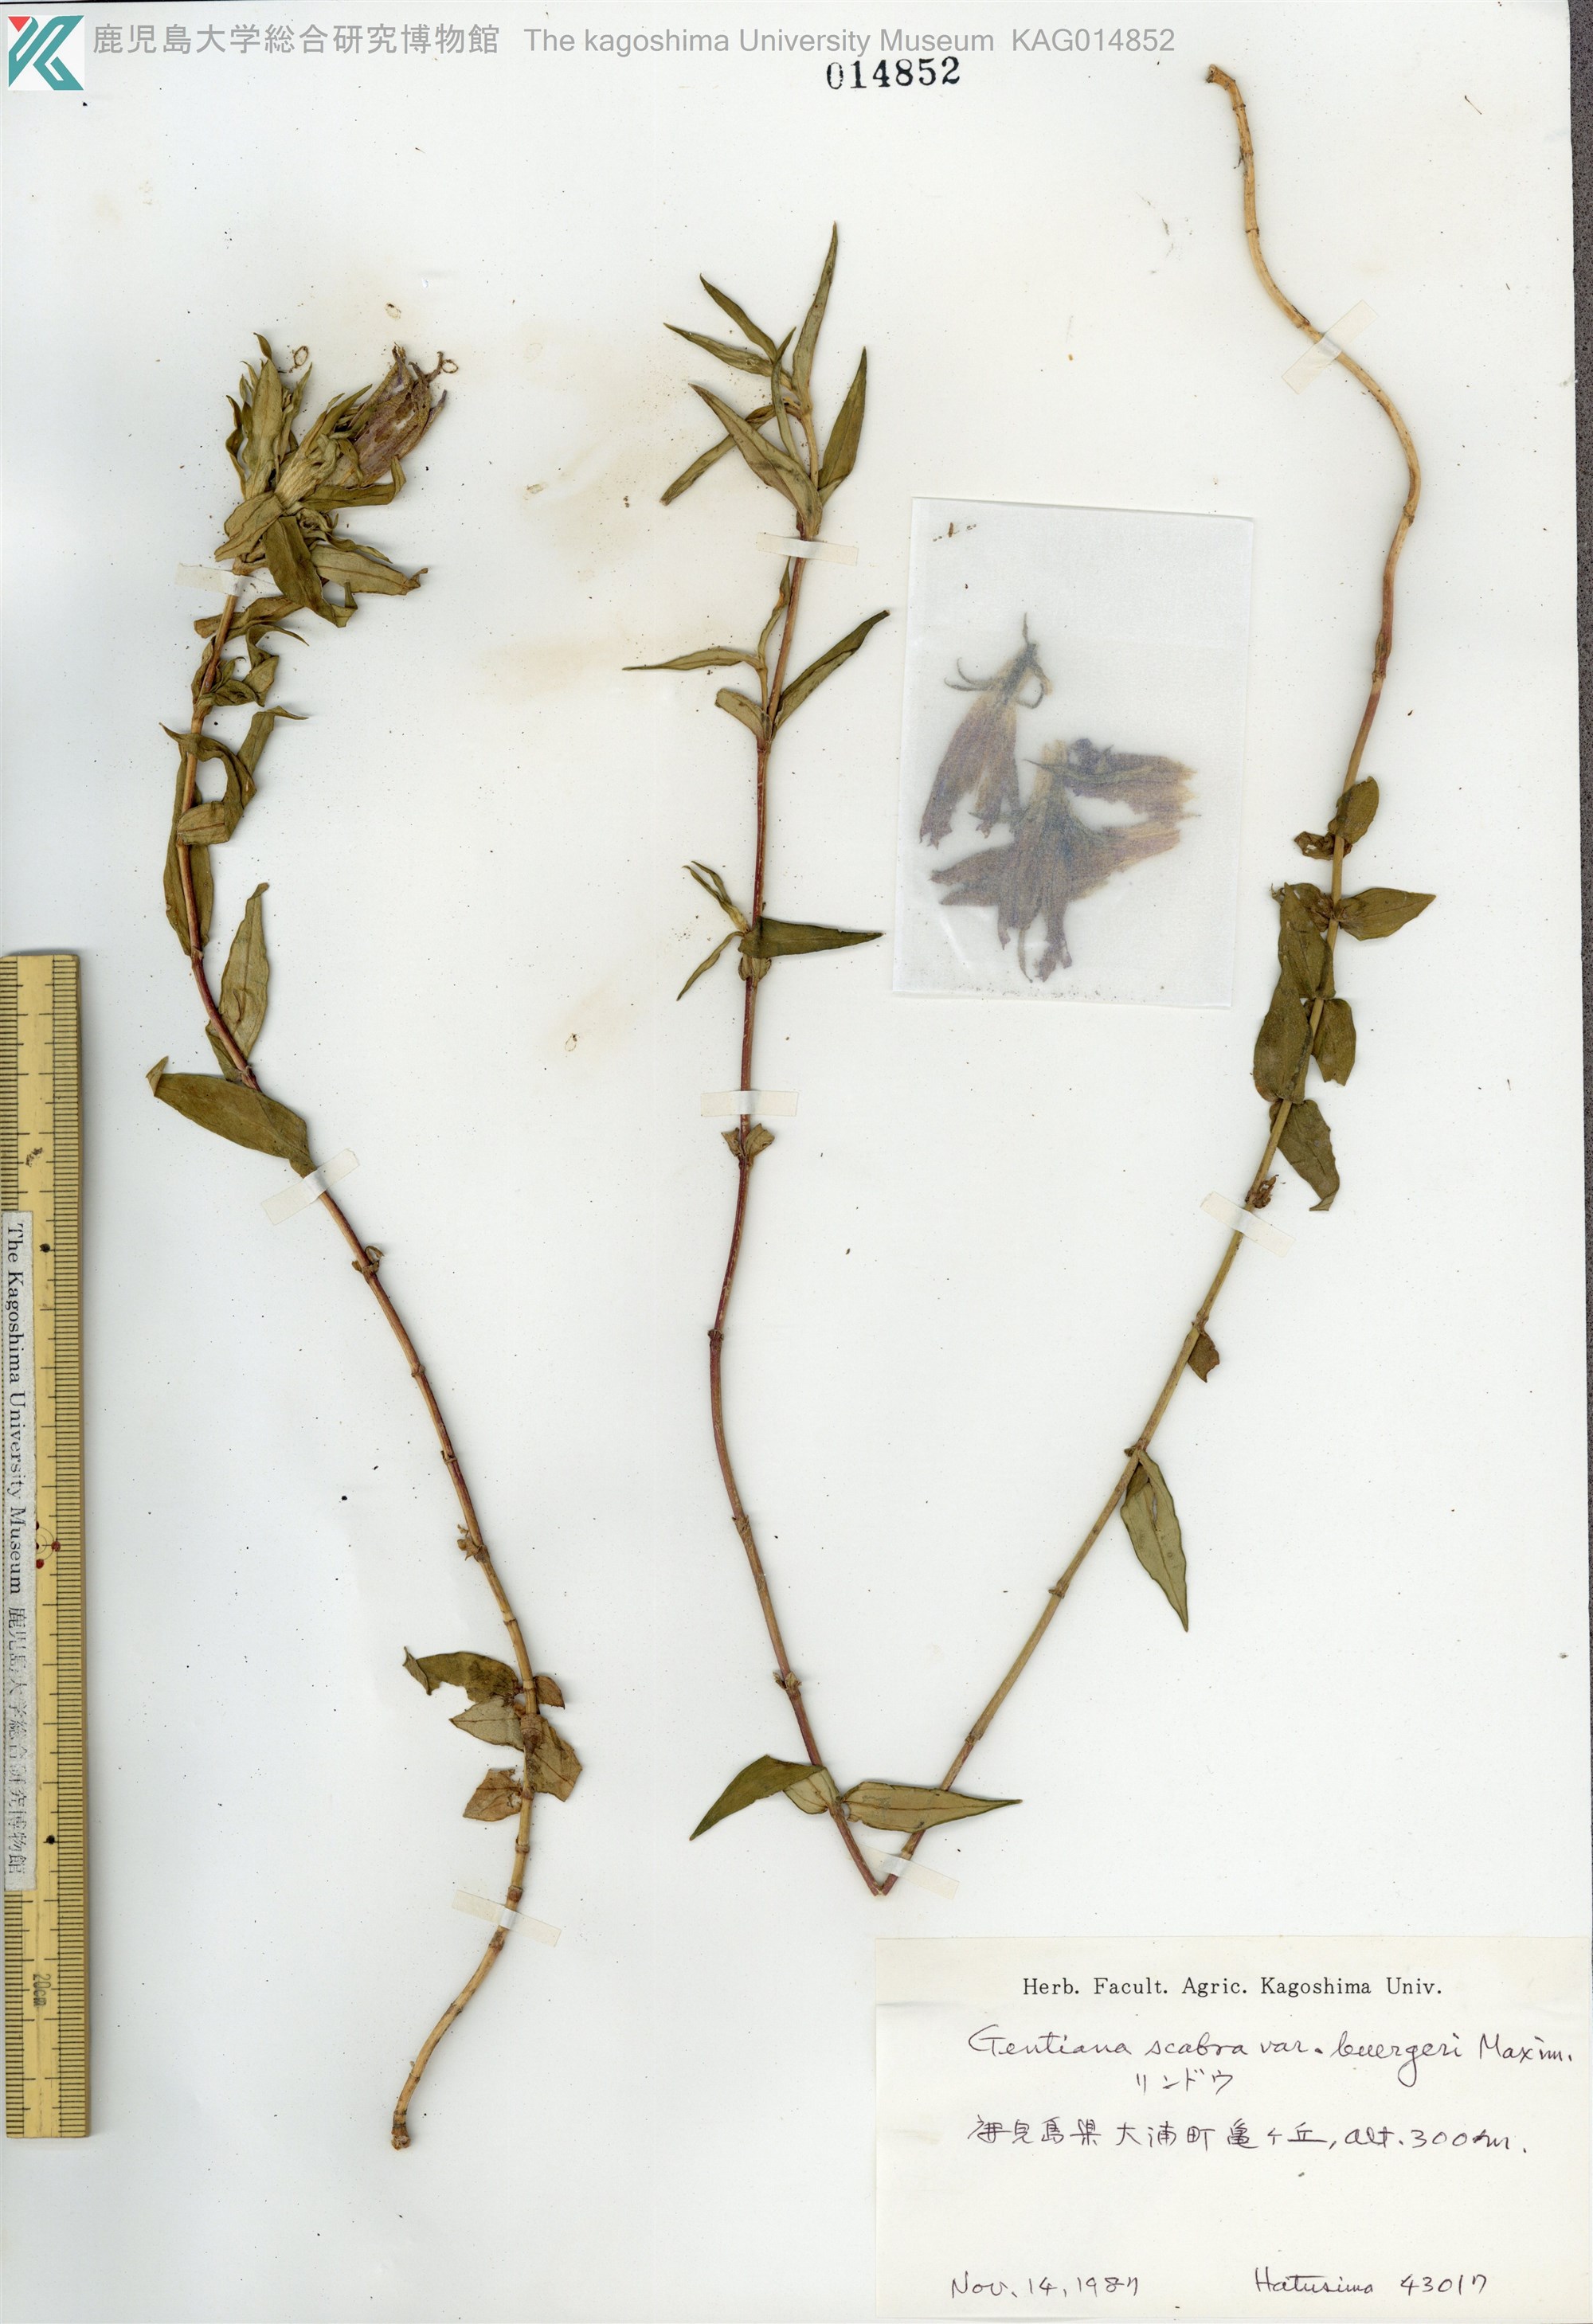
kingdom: Plantae
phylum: Tracheophyta
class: Magnoliopsida
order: Gentianales
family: Gentianaceae
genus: Gentiana
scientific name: Gentiana scabra
